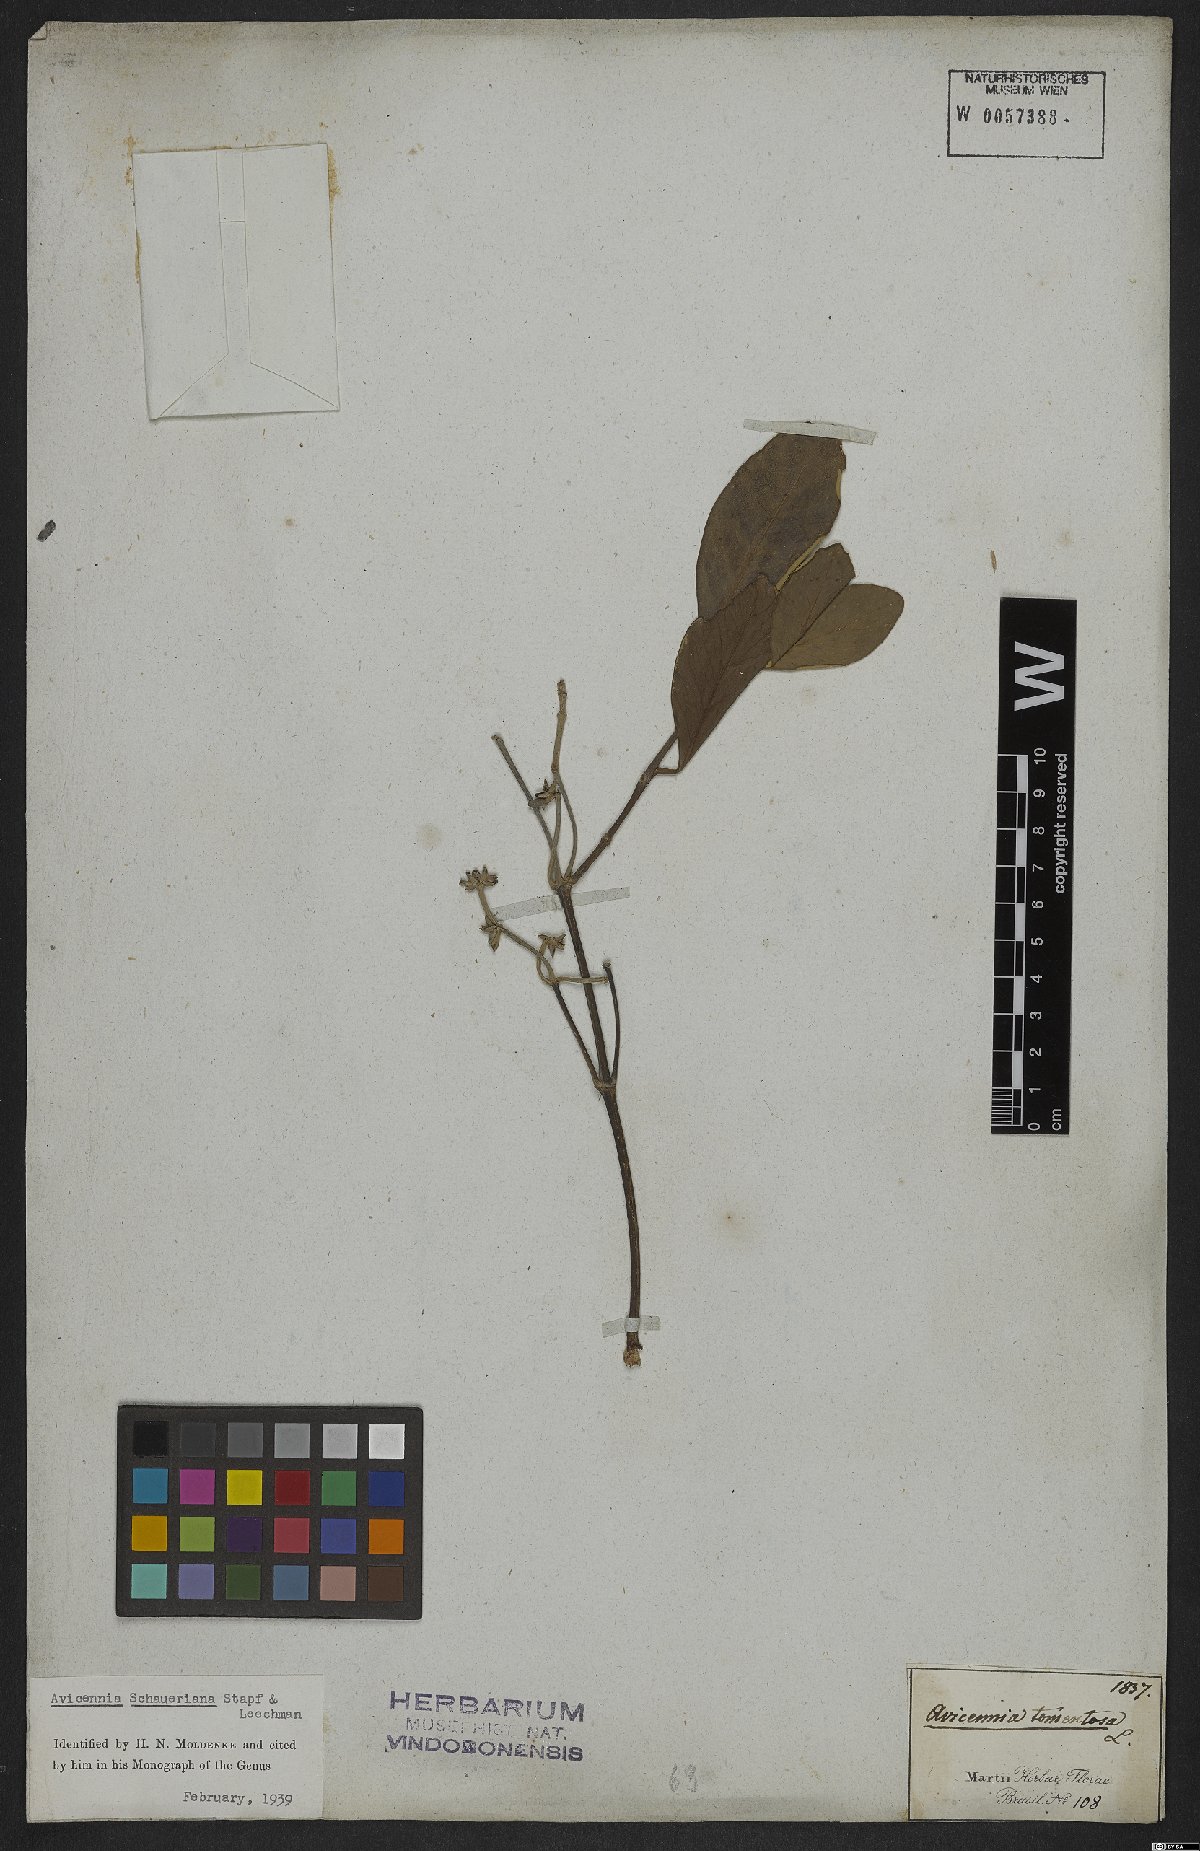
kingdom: Plantae
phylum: Tracheophyta
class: Magnoliopsida
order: Lamiales
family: Acanthaceae
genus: Avicennia
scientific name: Avicennia schaueriana
